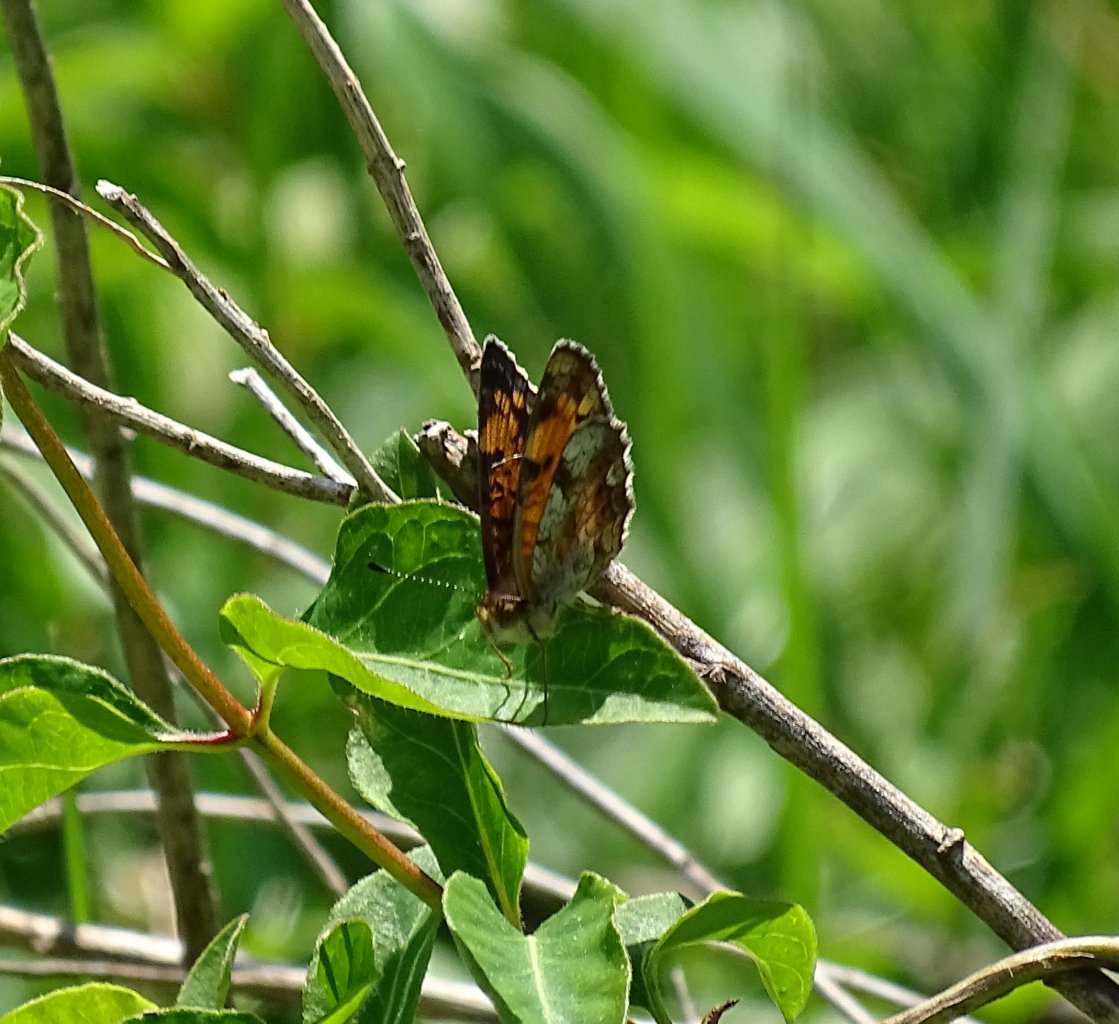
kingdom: Animalia
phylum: Arthropoda
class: Insecta
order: Lepidoptera
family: Nymphalidae
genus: Phyciodes
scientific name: Phyciodes tharos
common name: Pearl Crescent
